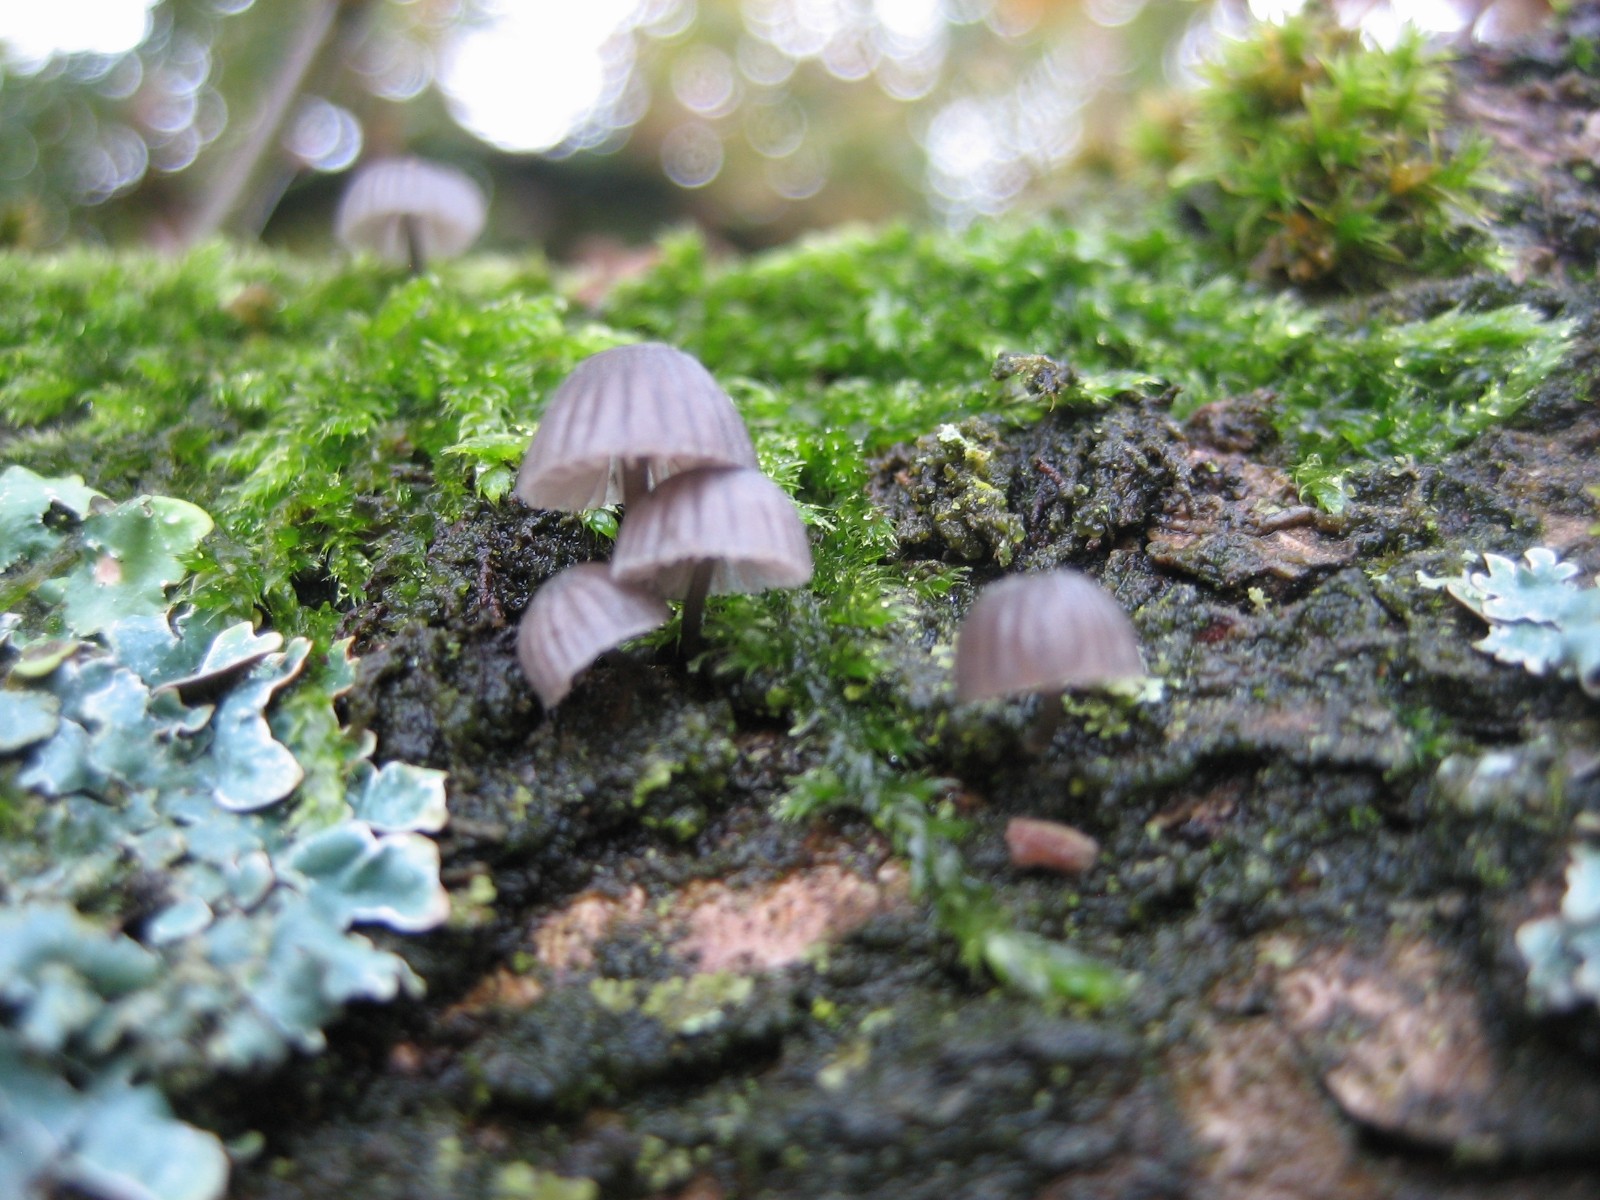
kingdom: Fungi
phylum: Basidiomycota
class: Agaricomycetes
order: Agaricales
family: Mycenaceae
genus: Mycena
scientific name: Mycena pseudocorticola
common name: gråblå bark-huesvamp
